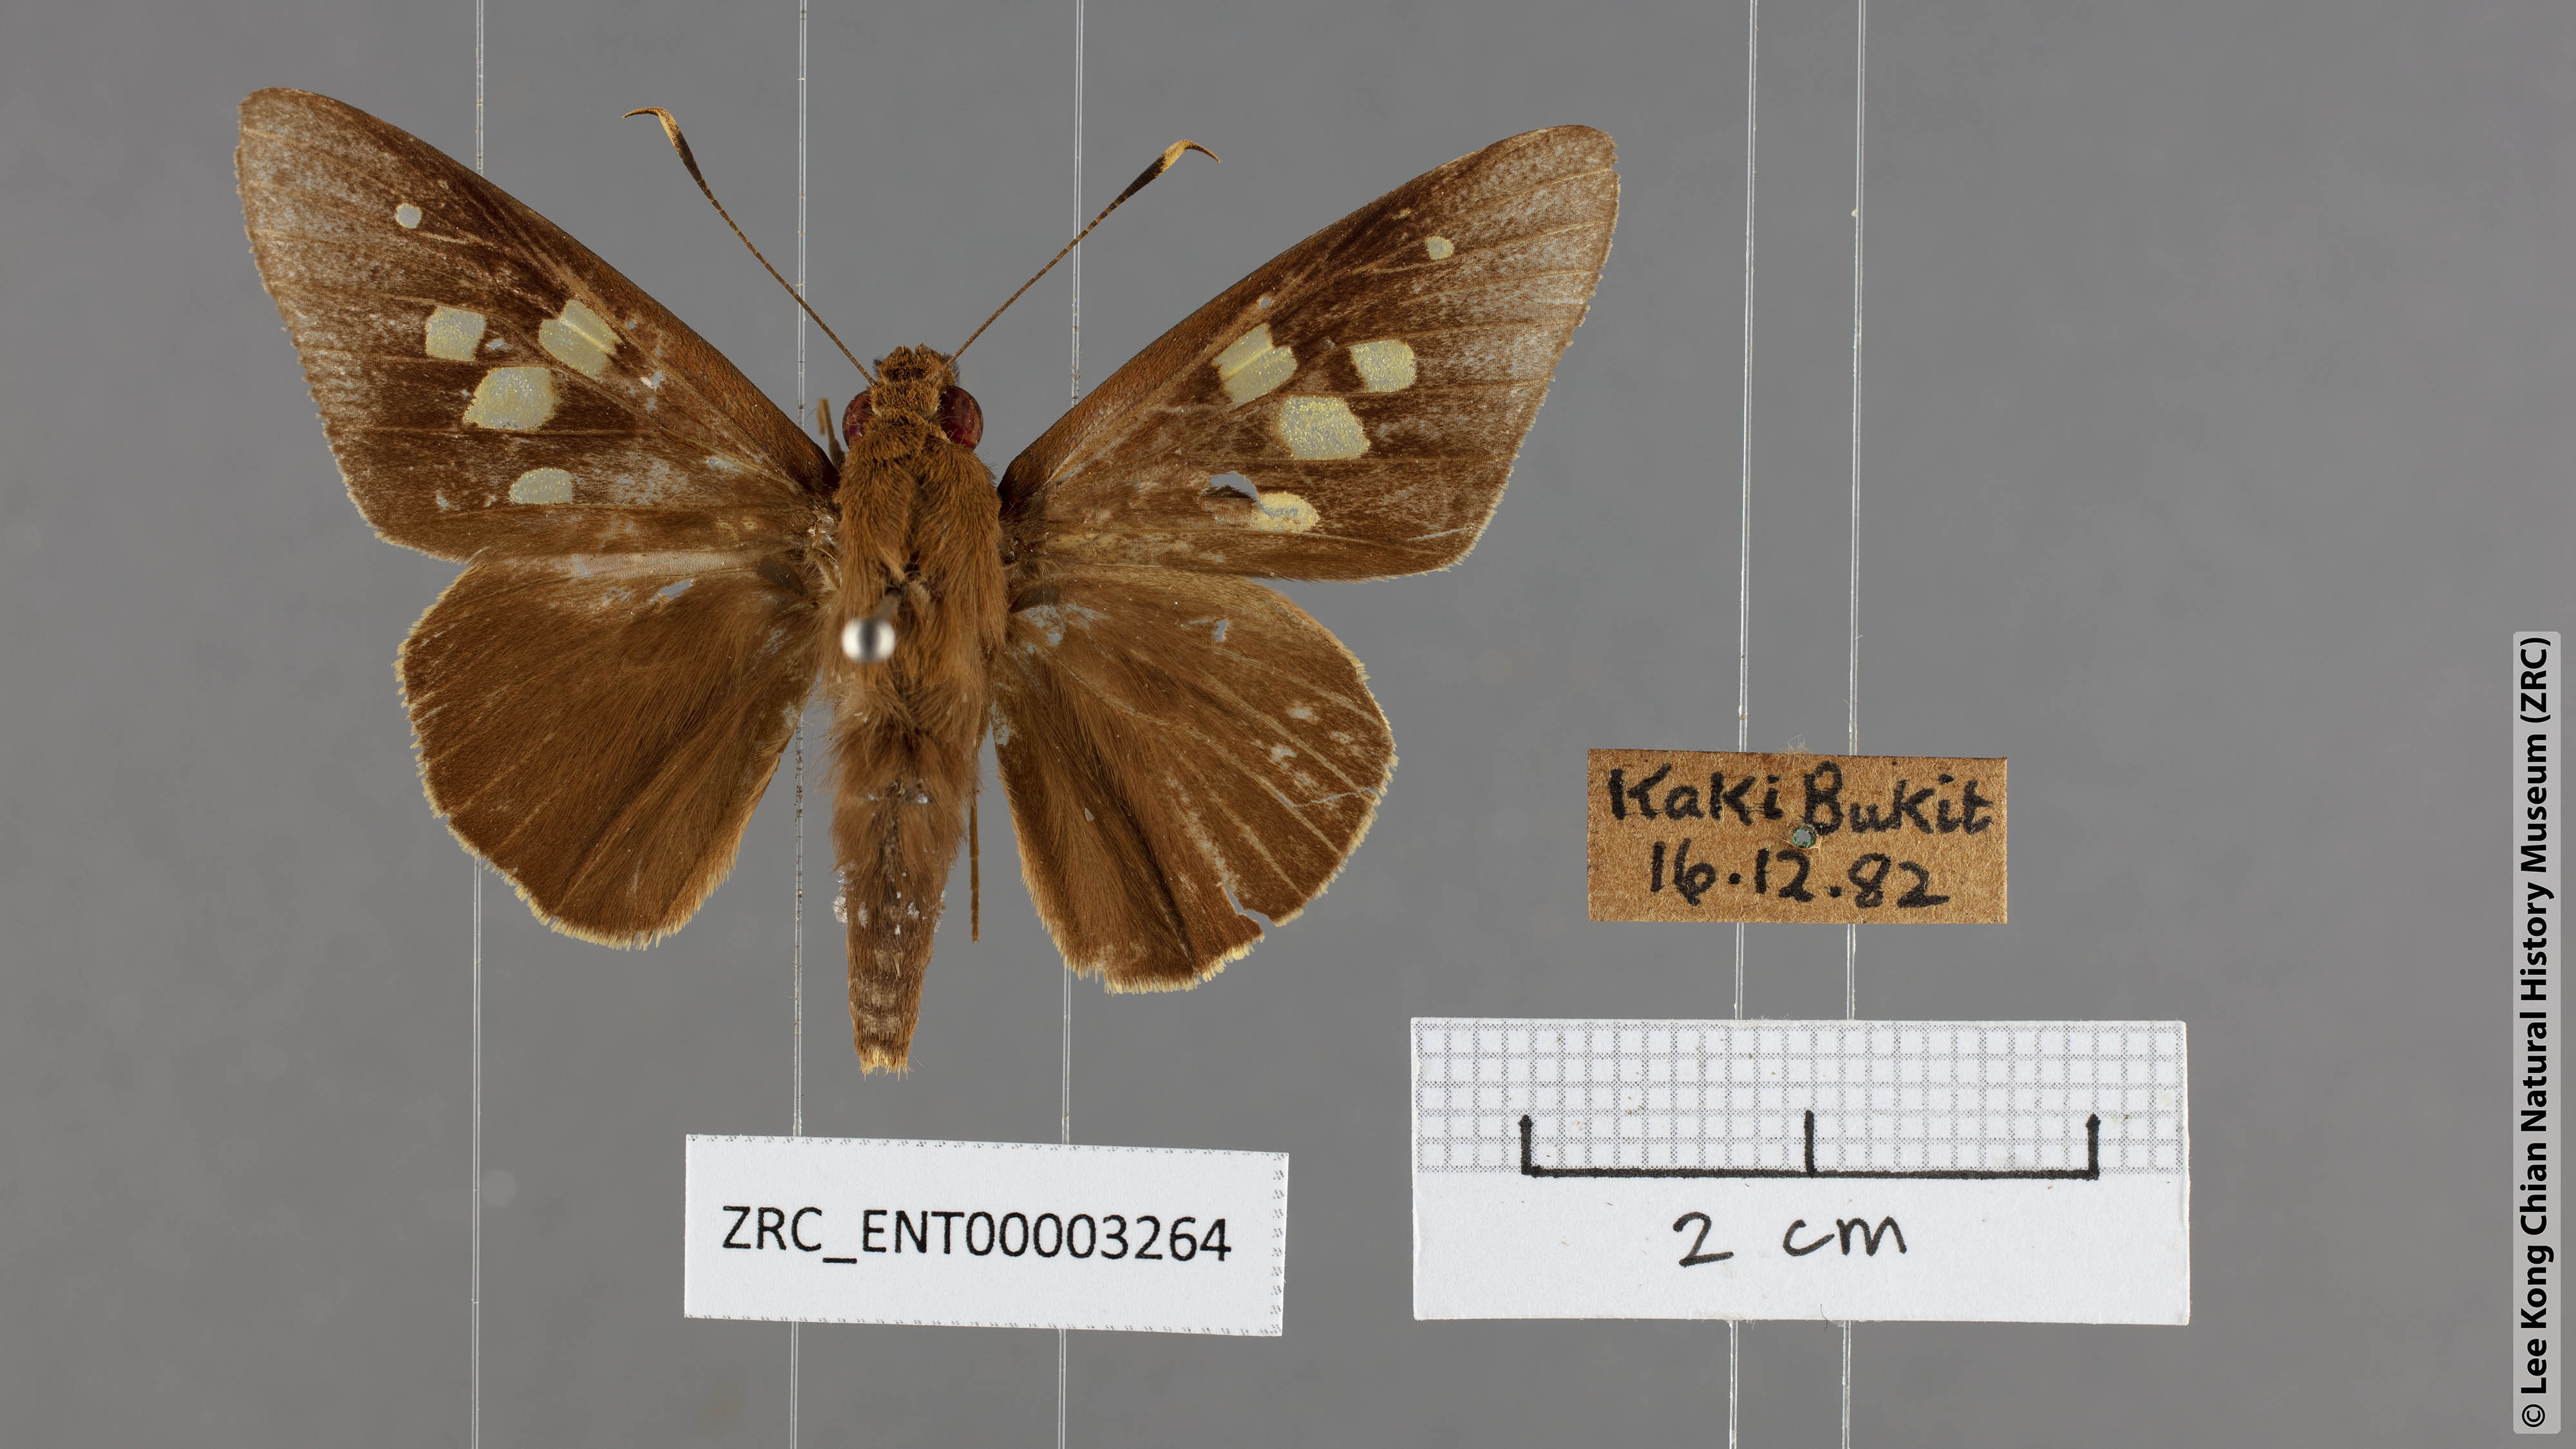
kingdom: Animalia
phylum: Arthropoda
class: Insecta
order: Lepidoptera
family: Hesperiidae
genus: Hidari
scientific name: Hidari irava
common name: Coconut skipper
